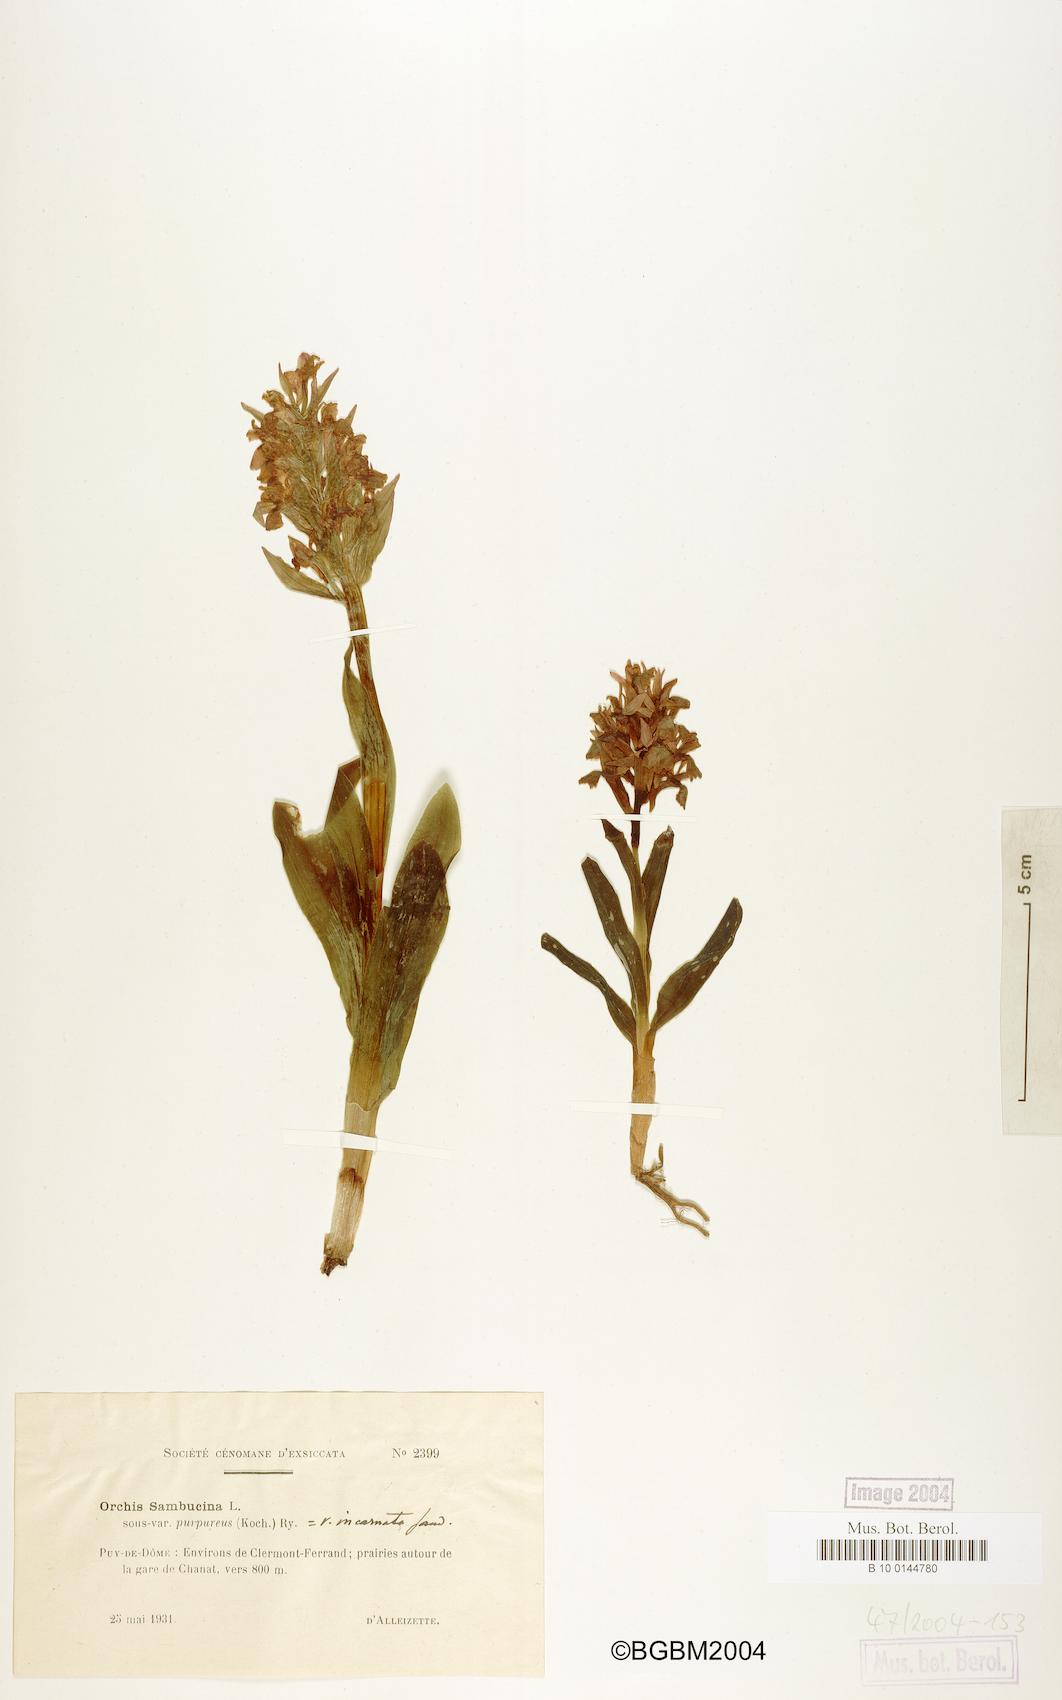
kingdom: Plantae
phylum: Tracheophyta
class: Liliopsida
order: Asparagales
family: Orchidaceae
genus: Dactylorhiza
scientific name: Dactylorhiza sambucina
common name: Elder-flowered orchid
